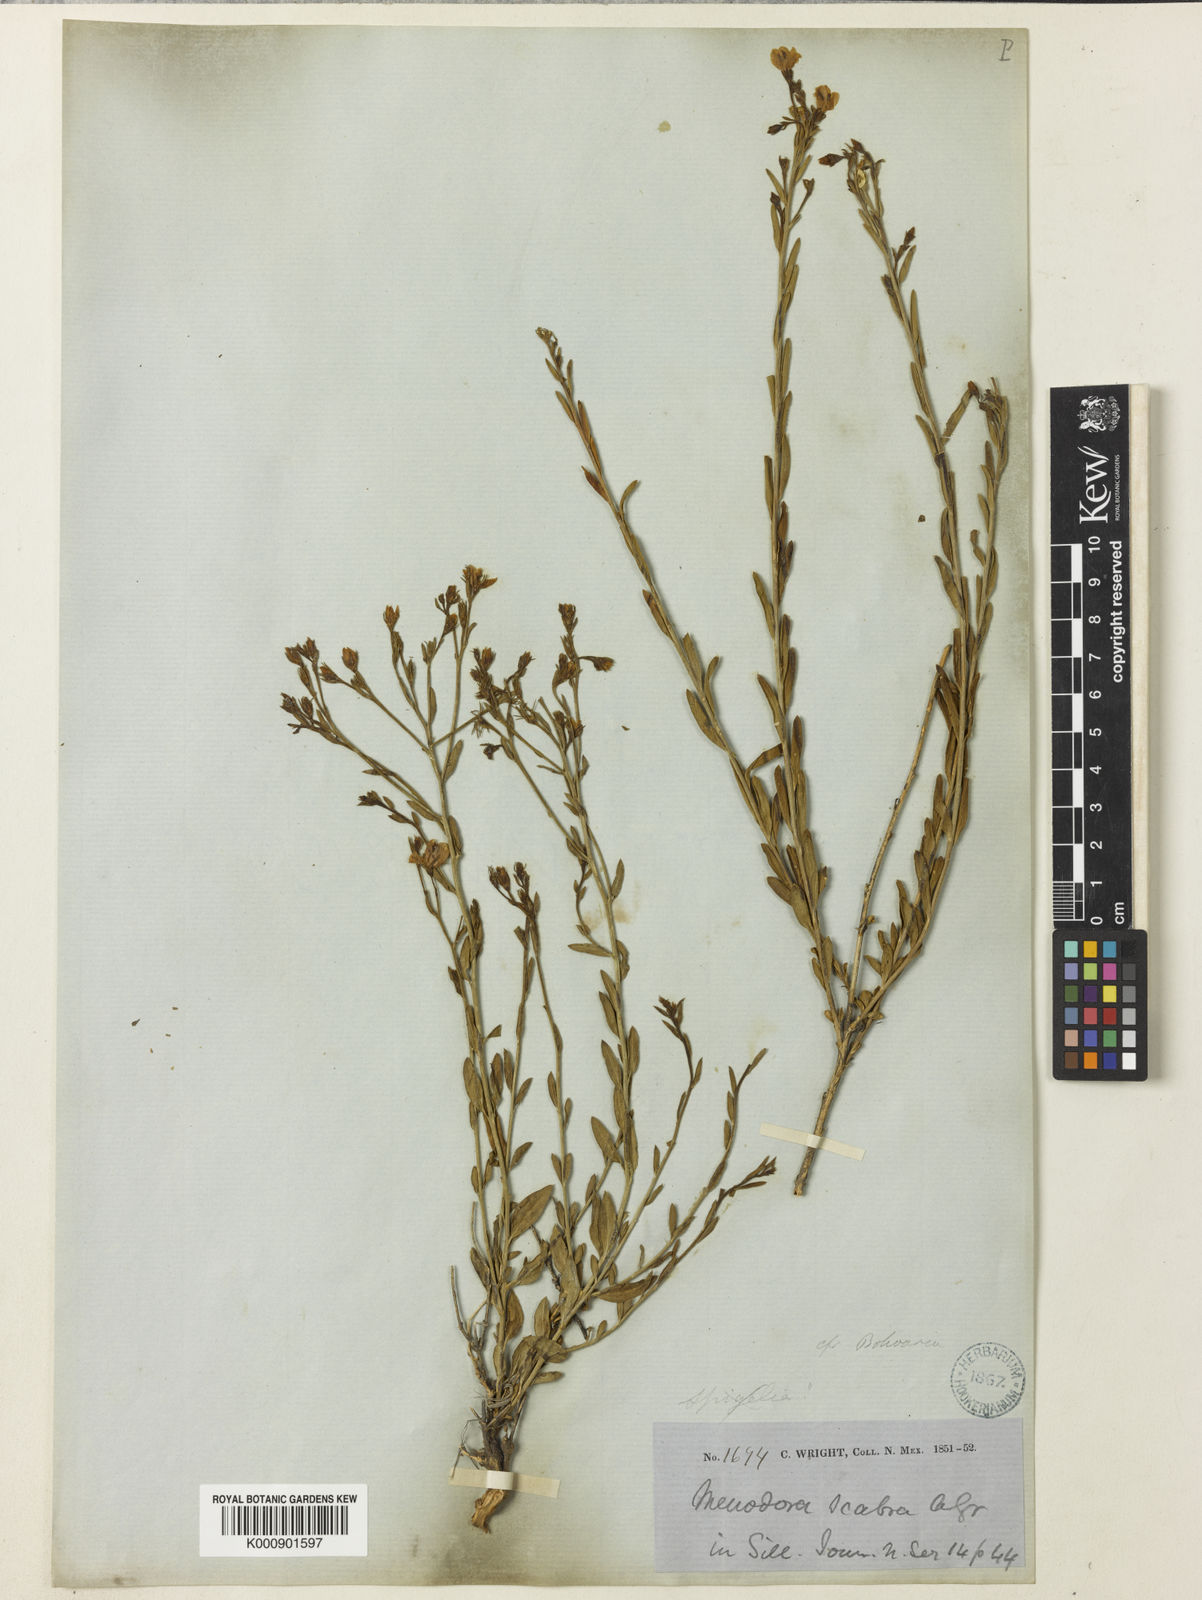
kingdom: Plantae
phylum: Tracheophyta
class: Magnoliopsida
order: Lamiales
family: Oleaceae
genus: Menodora
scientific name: Menodora scabra
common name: Rough menodora
